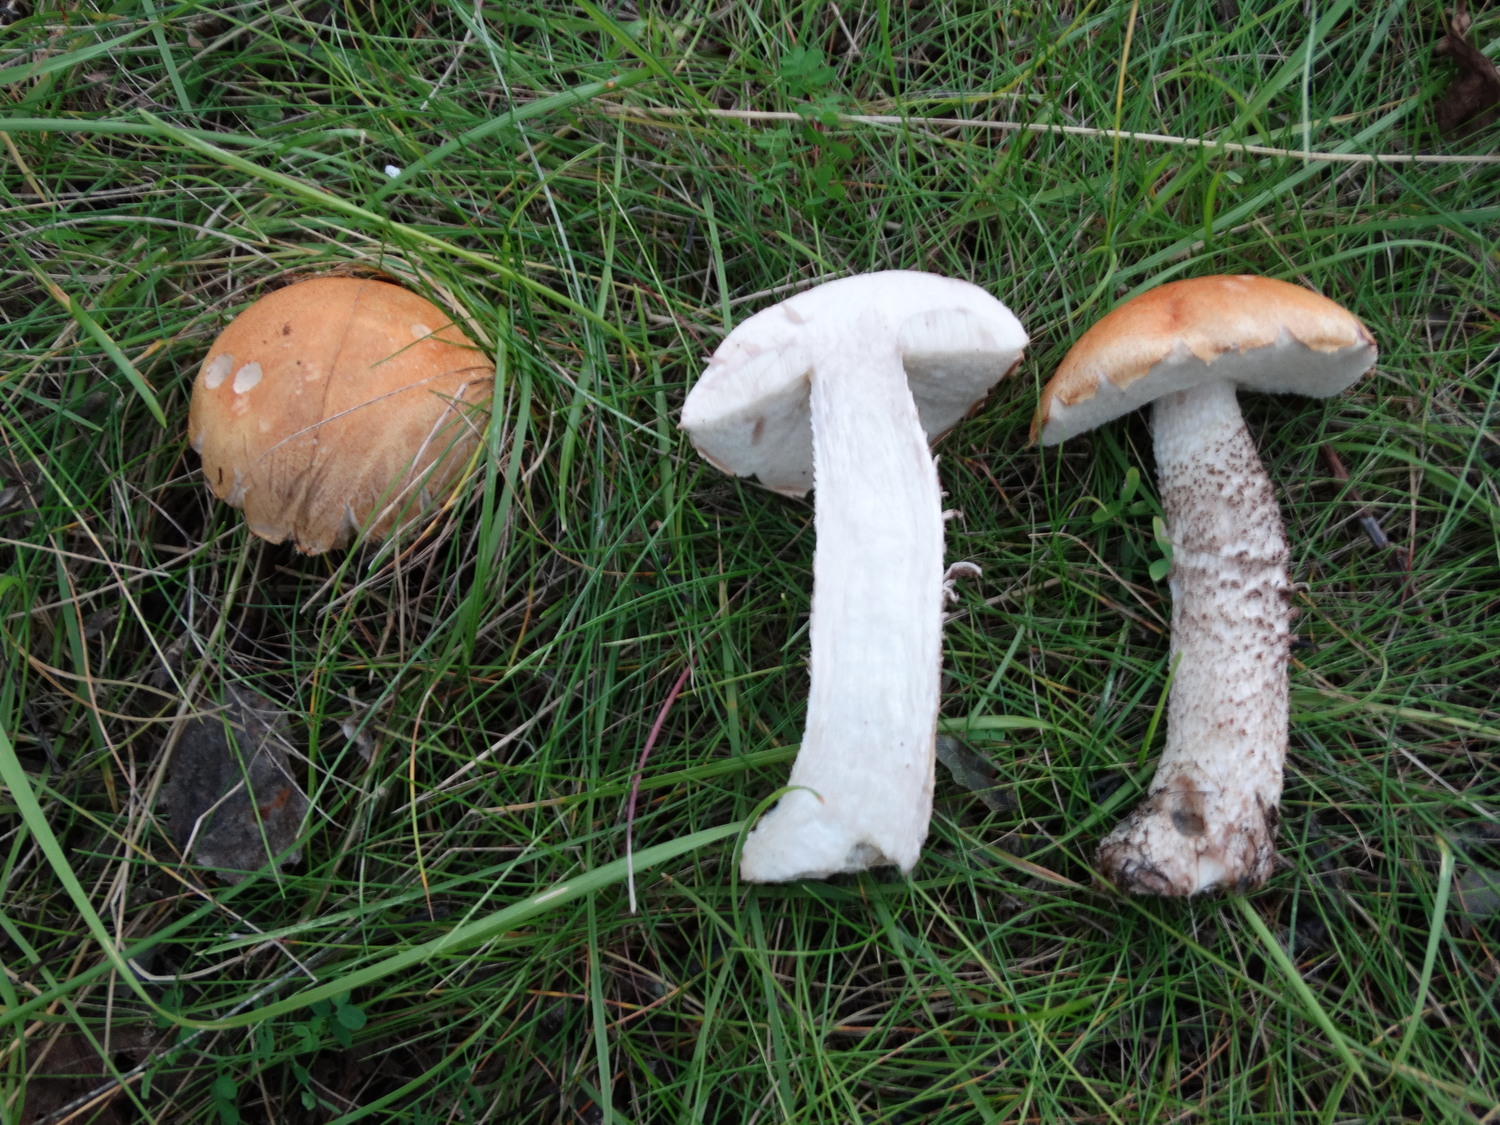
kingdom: Fungi
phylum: Basidiomycota
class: Agaricomycetes
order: Boletales
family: Boletaceae
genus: Leccinum
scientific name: Leccinum
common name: skælrørhat
